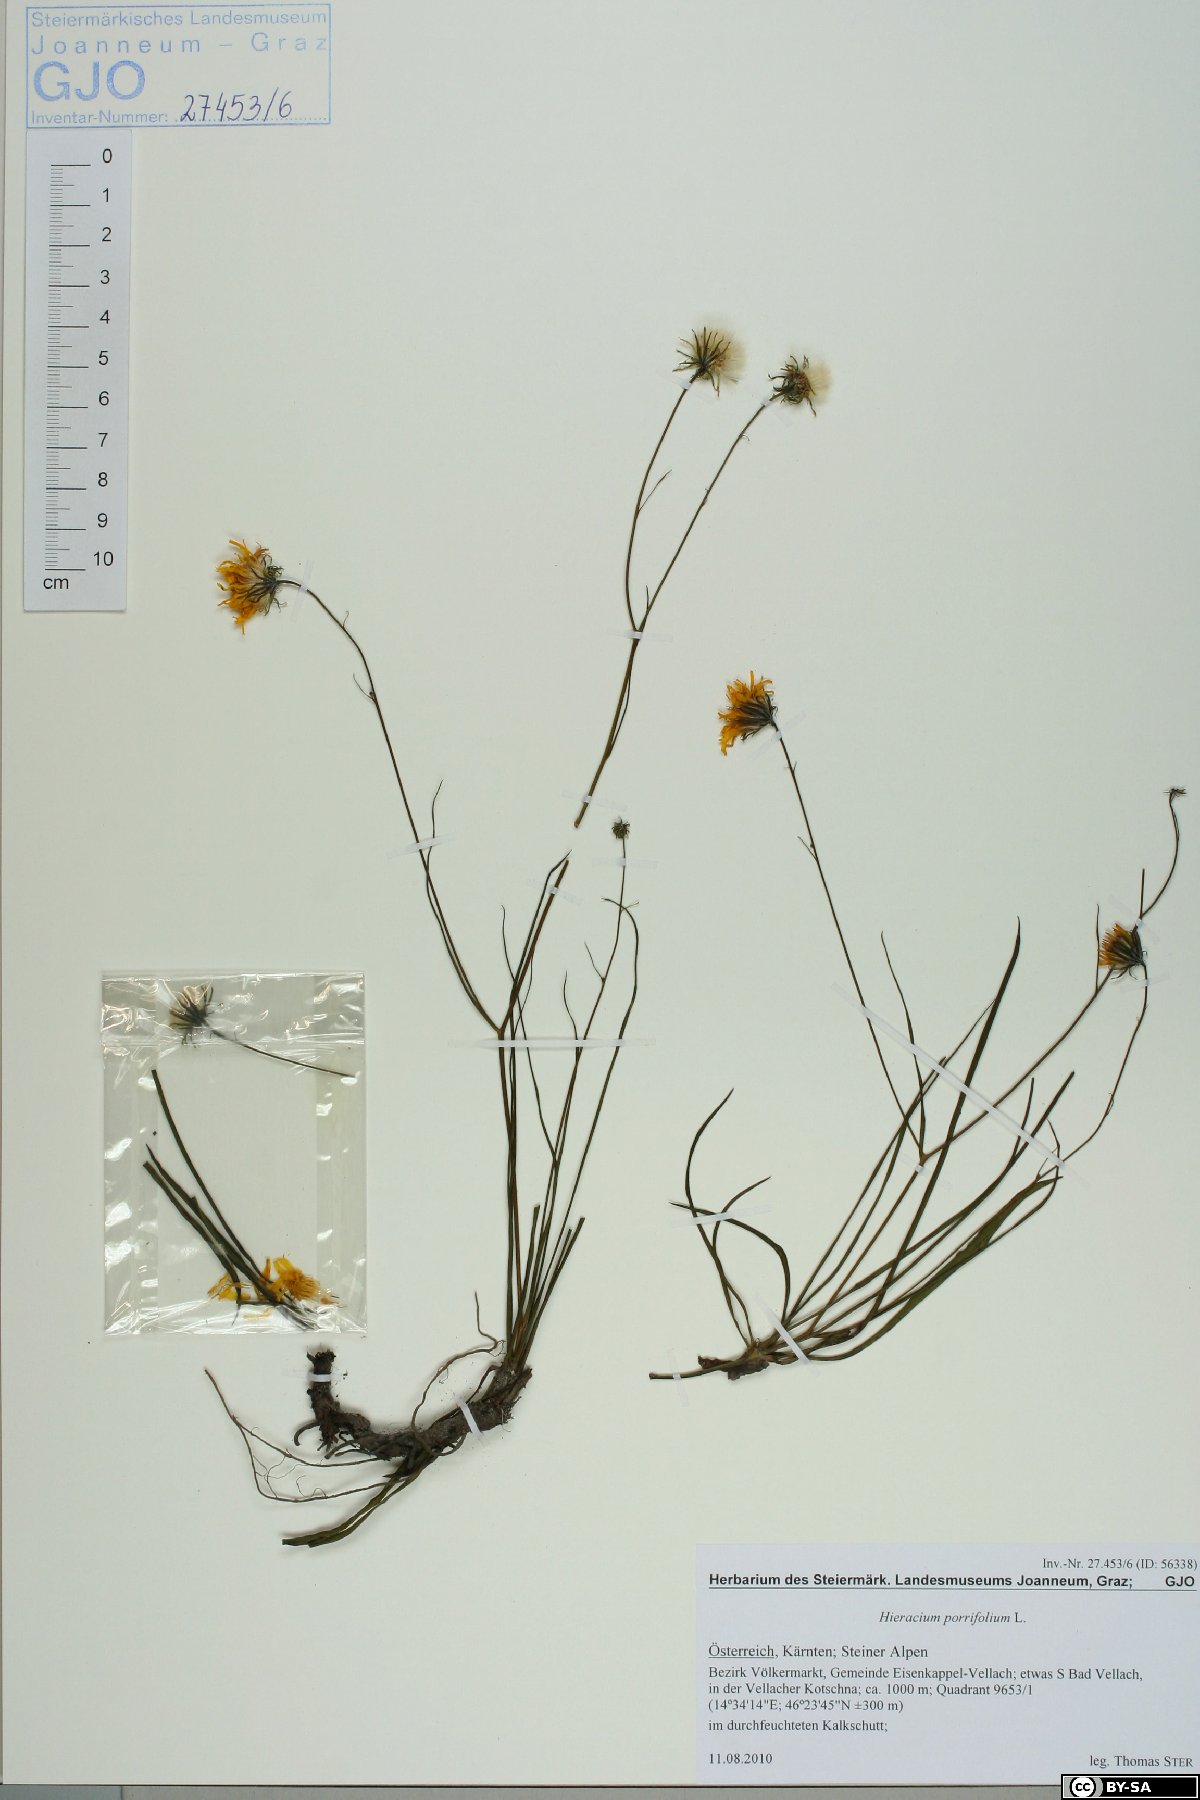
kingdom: Plantae
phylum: Tracheophyta
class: Magnoliopsida
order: Asterales
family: Asteraceae
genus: Hieracium
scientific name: Hieracium porrifolium
